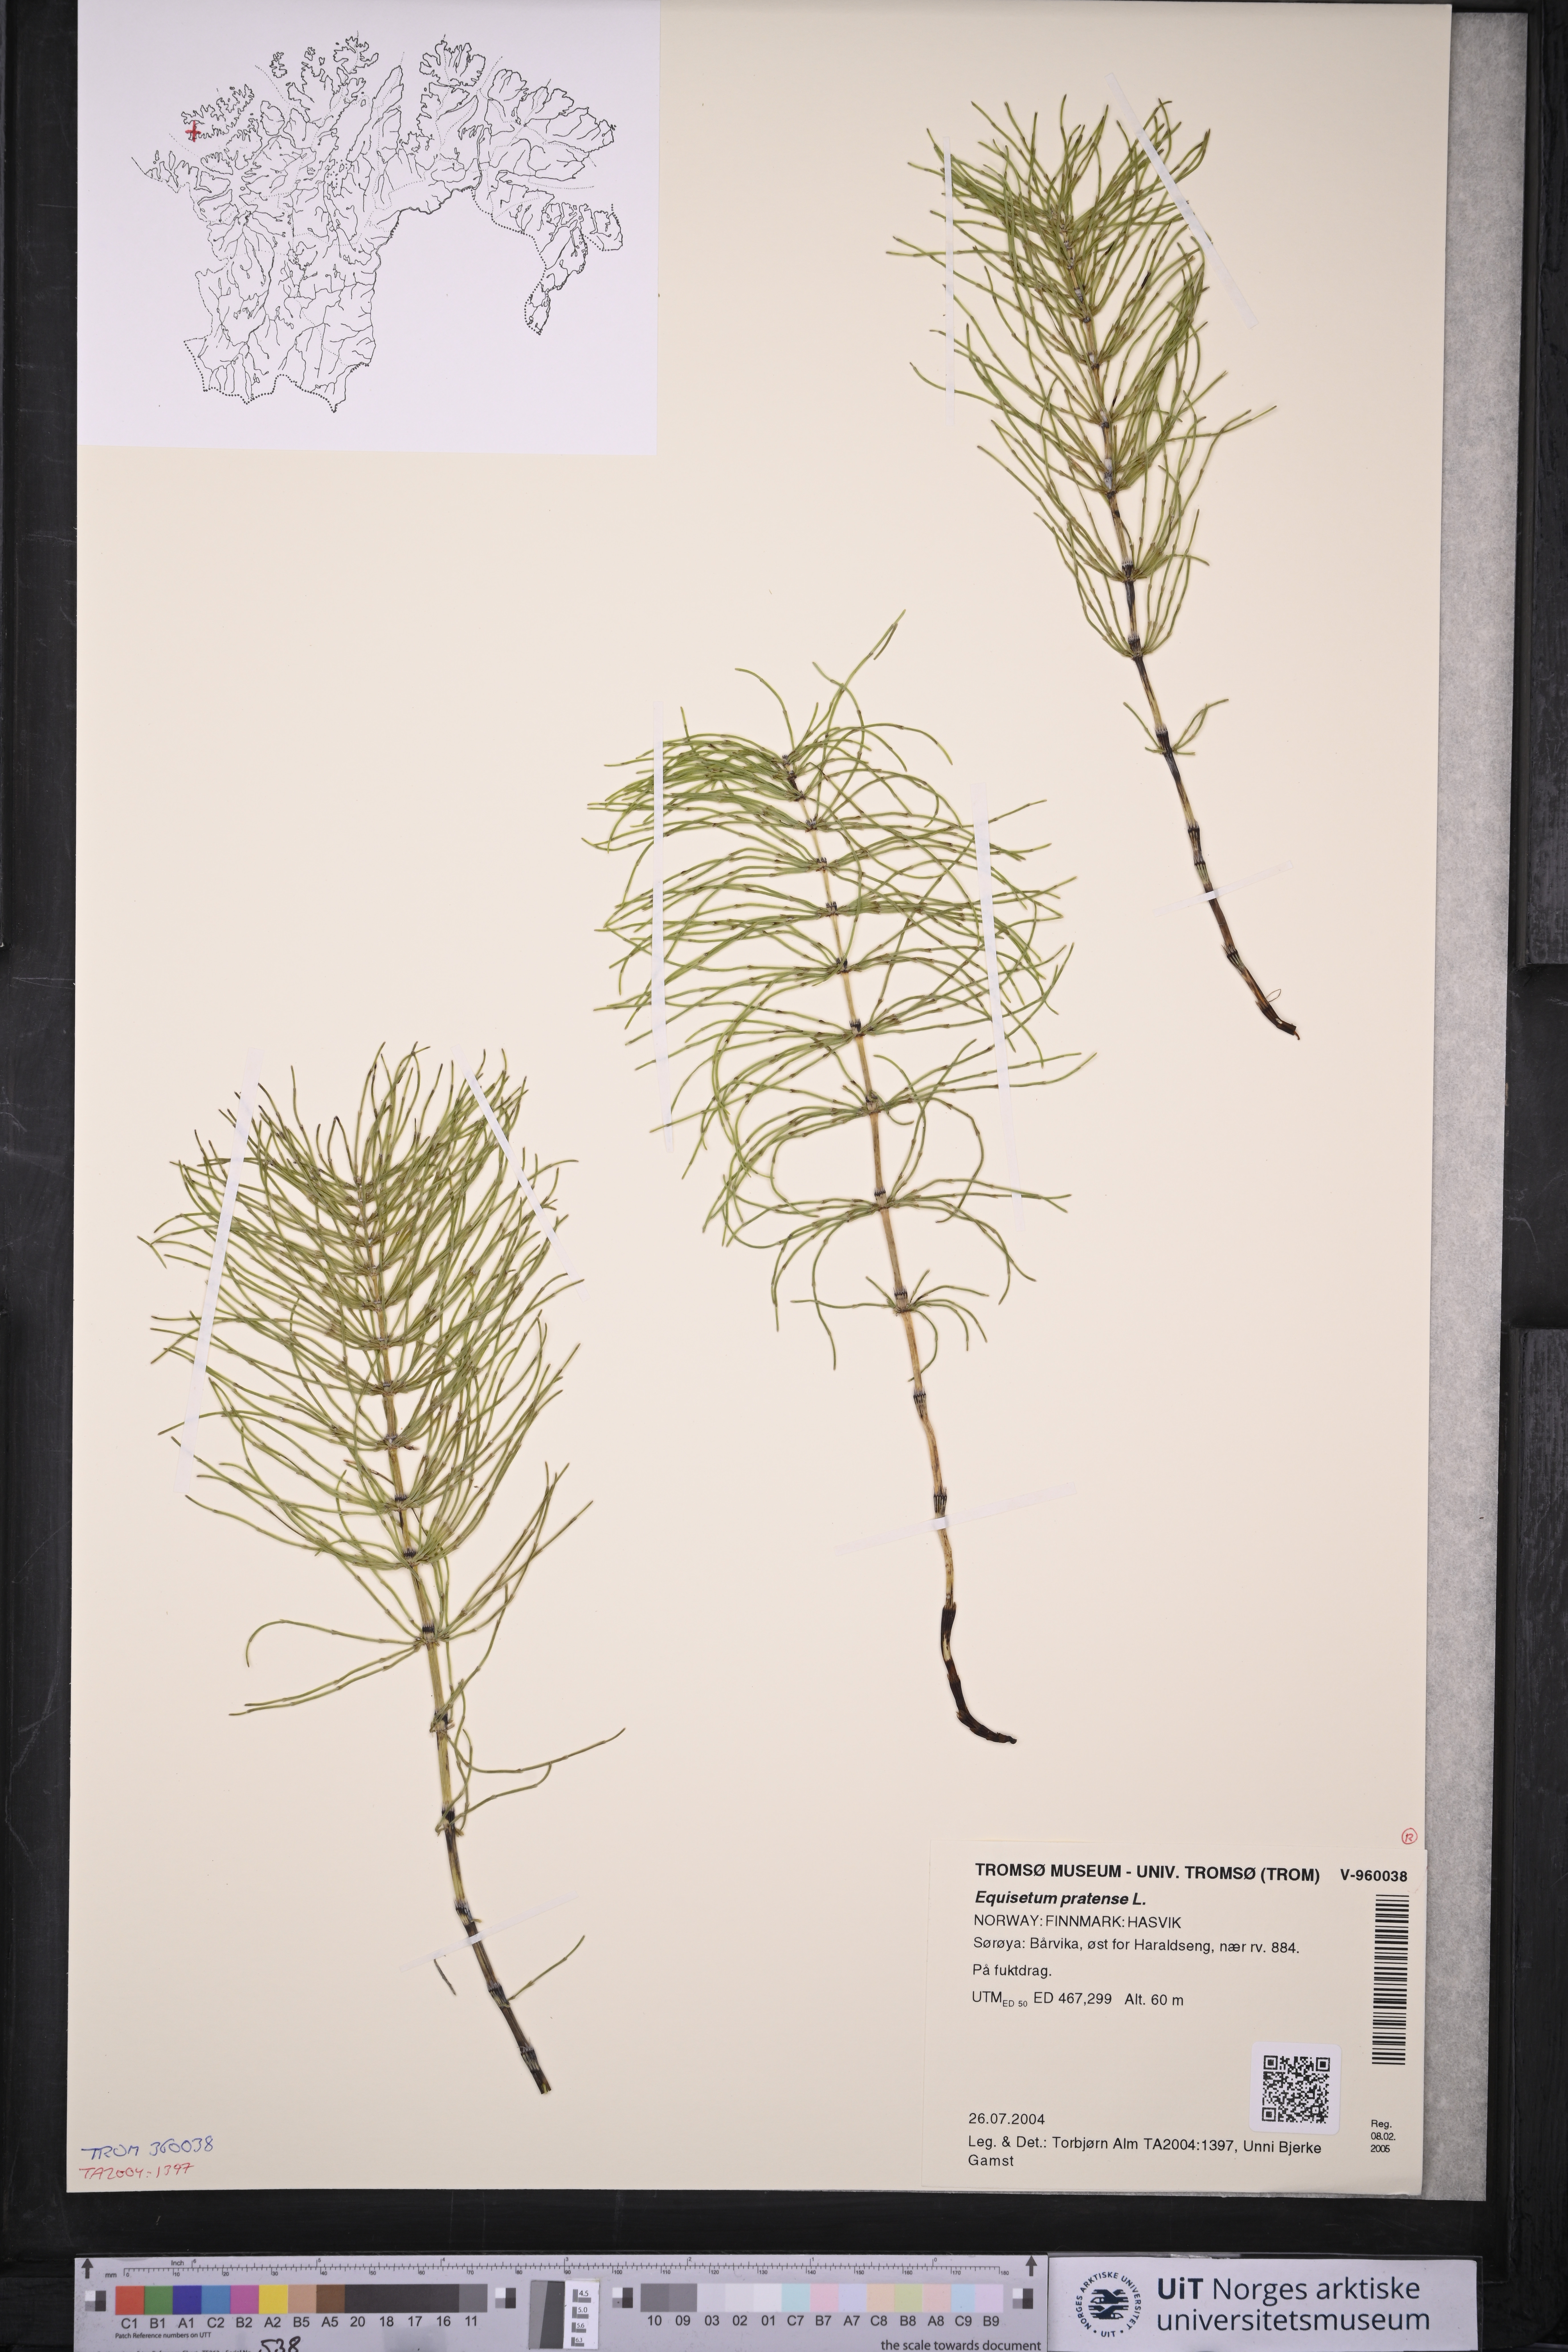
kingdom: Plantae
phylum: Tracheophyta
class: Polypodiopsida
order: Equisetales
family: Equisetaceae
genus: Equisetum
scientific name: Equisetum pratense
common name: Meadow horsetail
